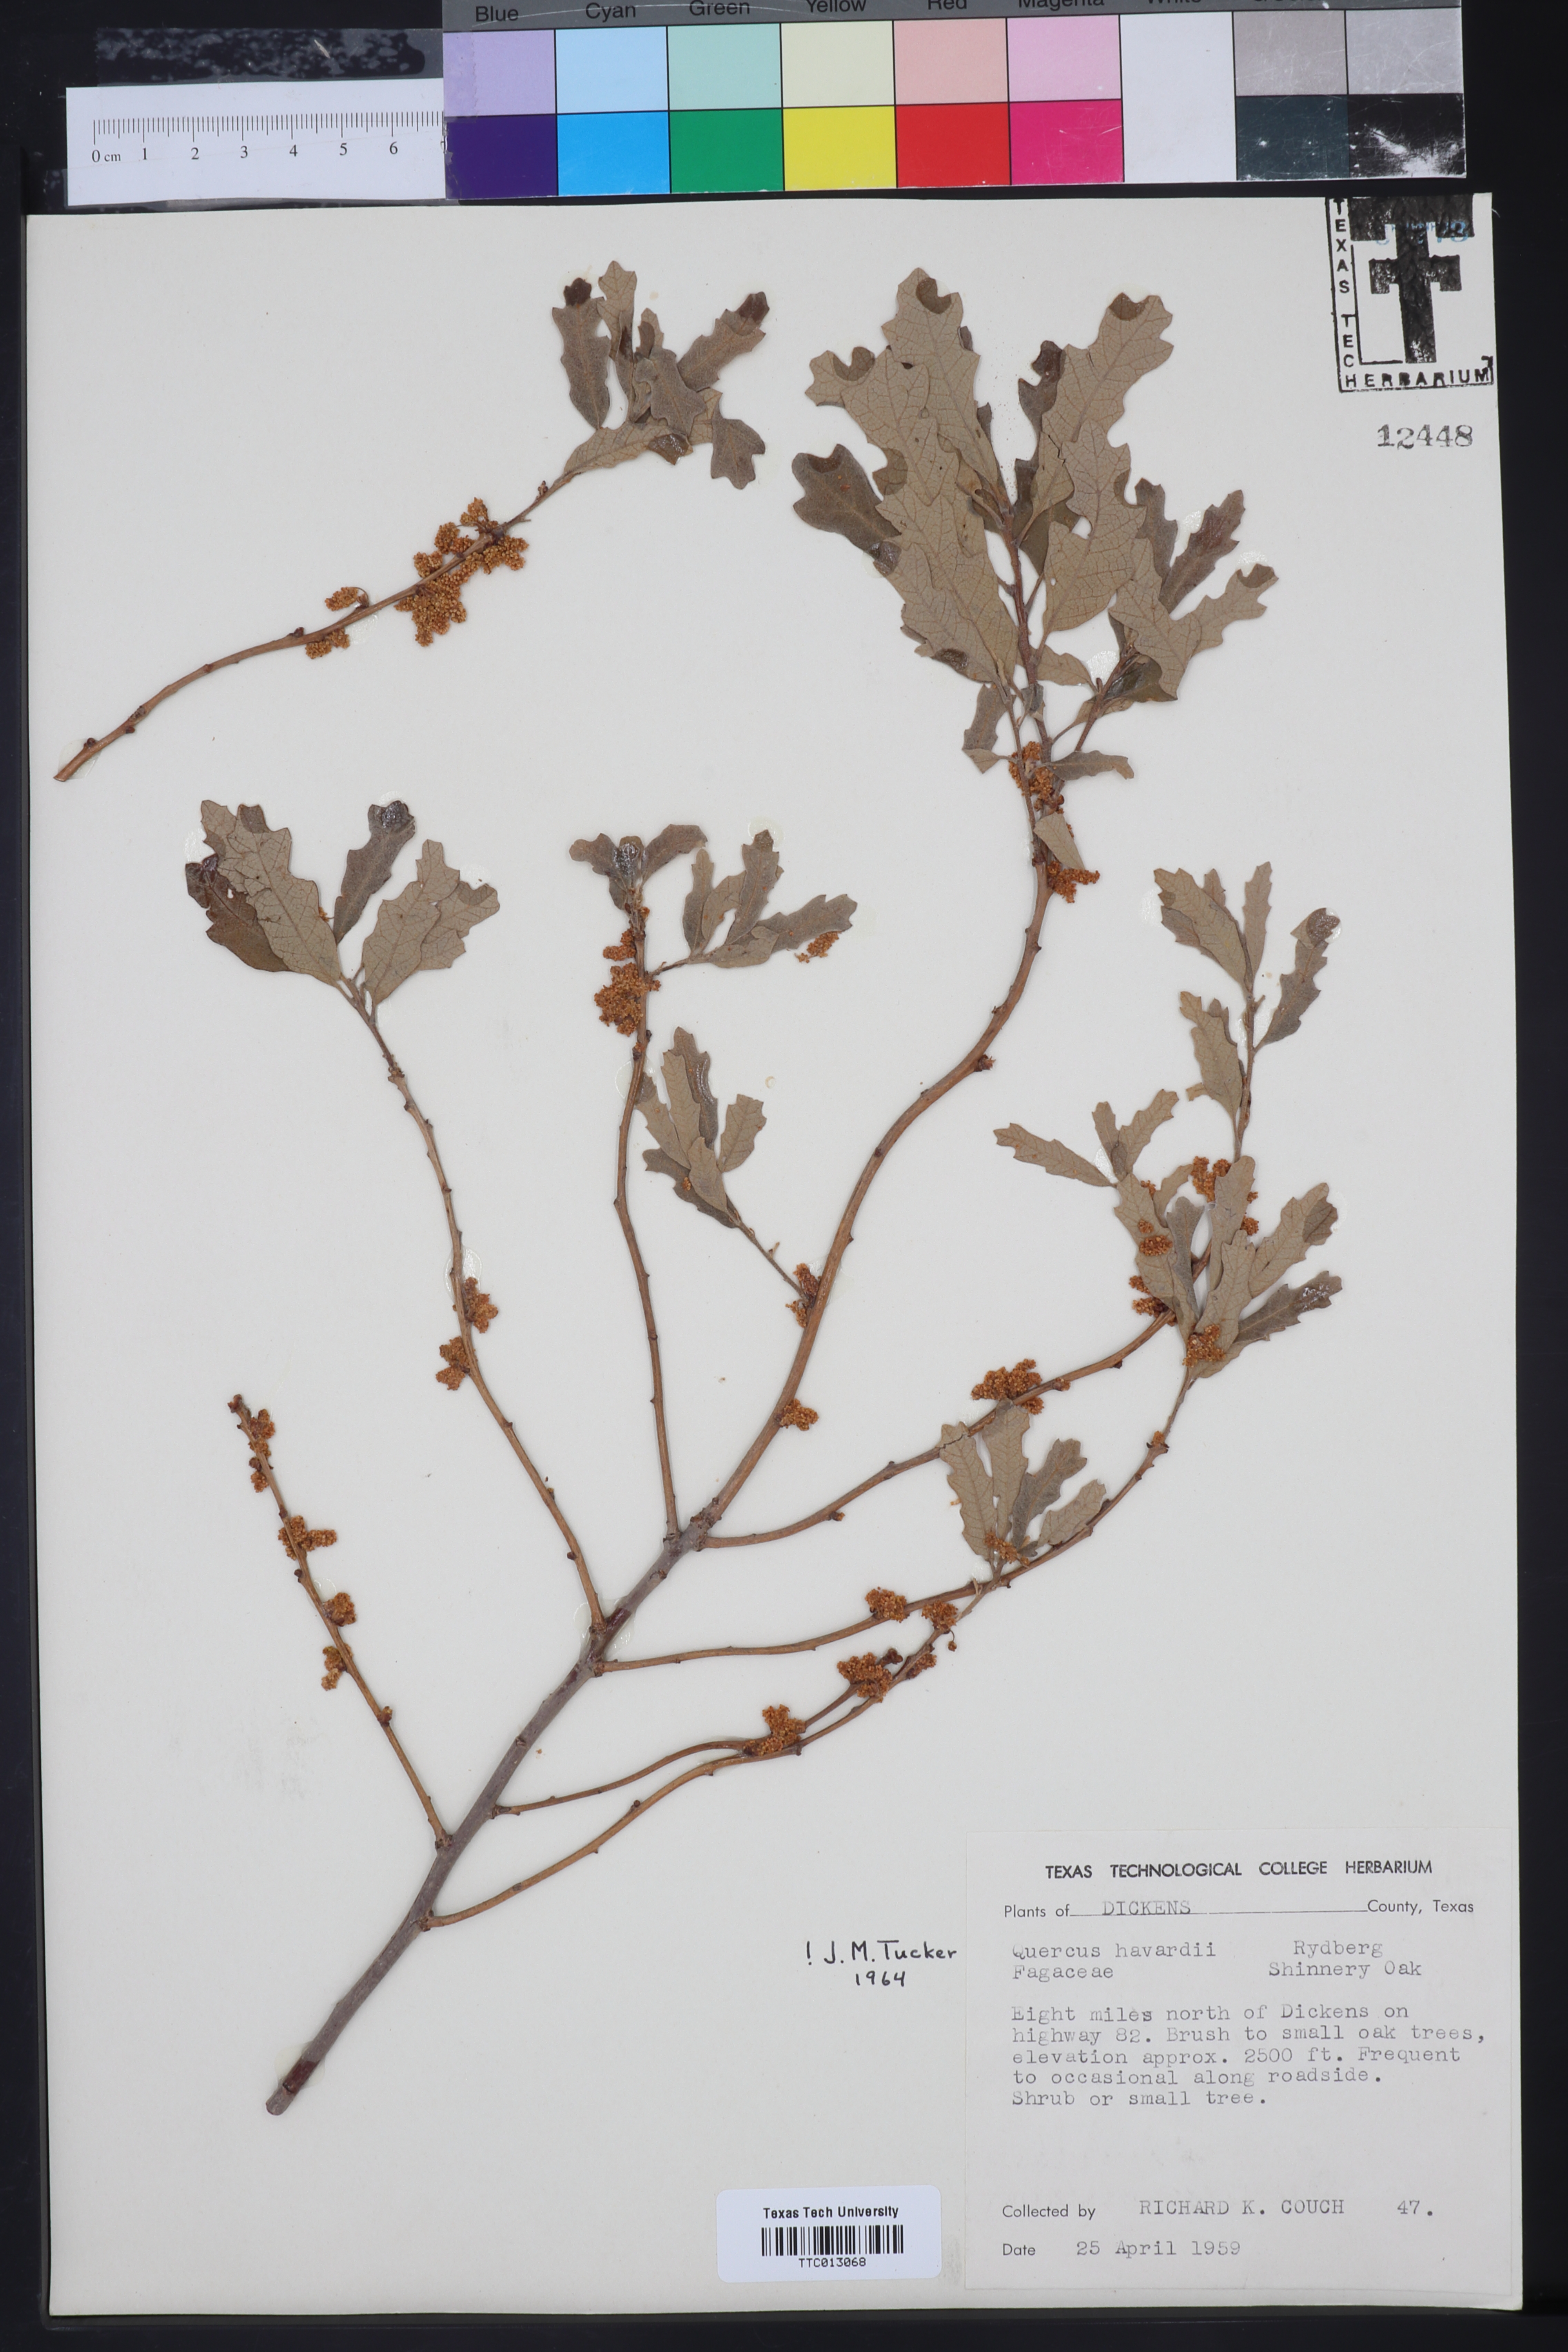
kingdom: Plantae
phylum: Tracheophyta
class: Magnoliopsida
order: Fagales
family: Fagaceae
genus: Quercus
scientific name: Quercus havardii
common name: Shinnery oak
